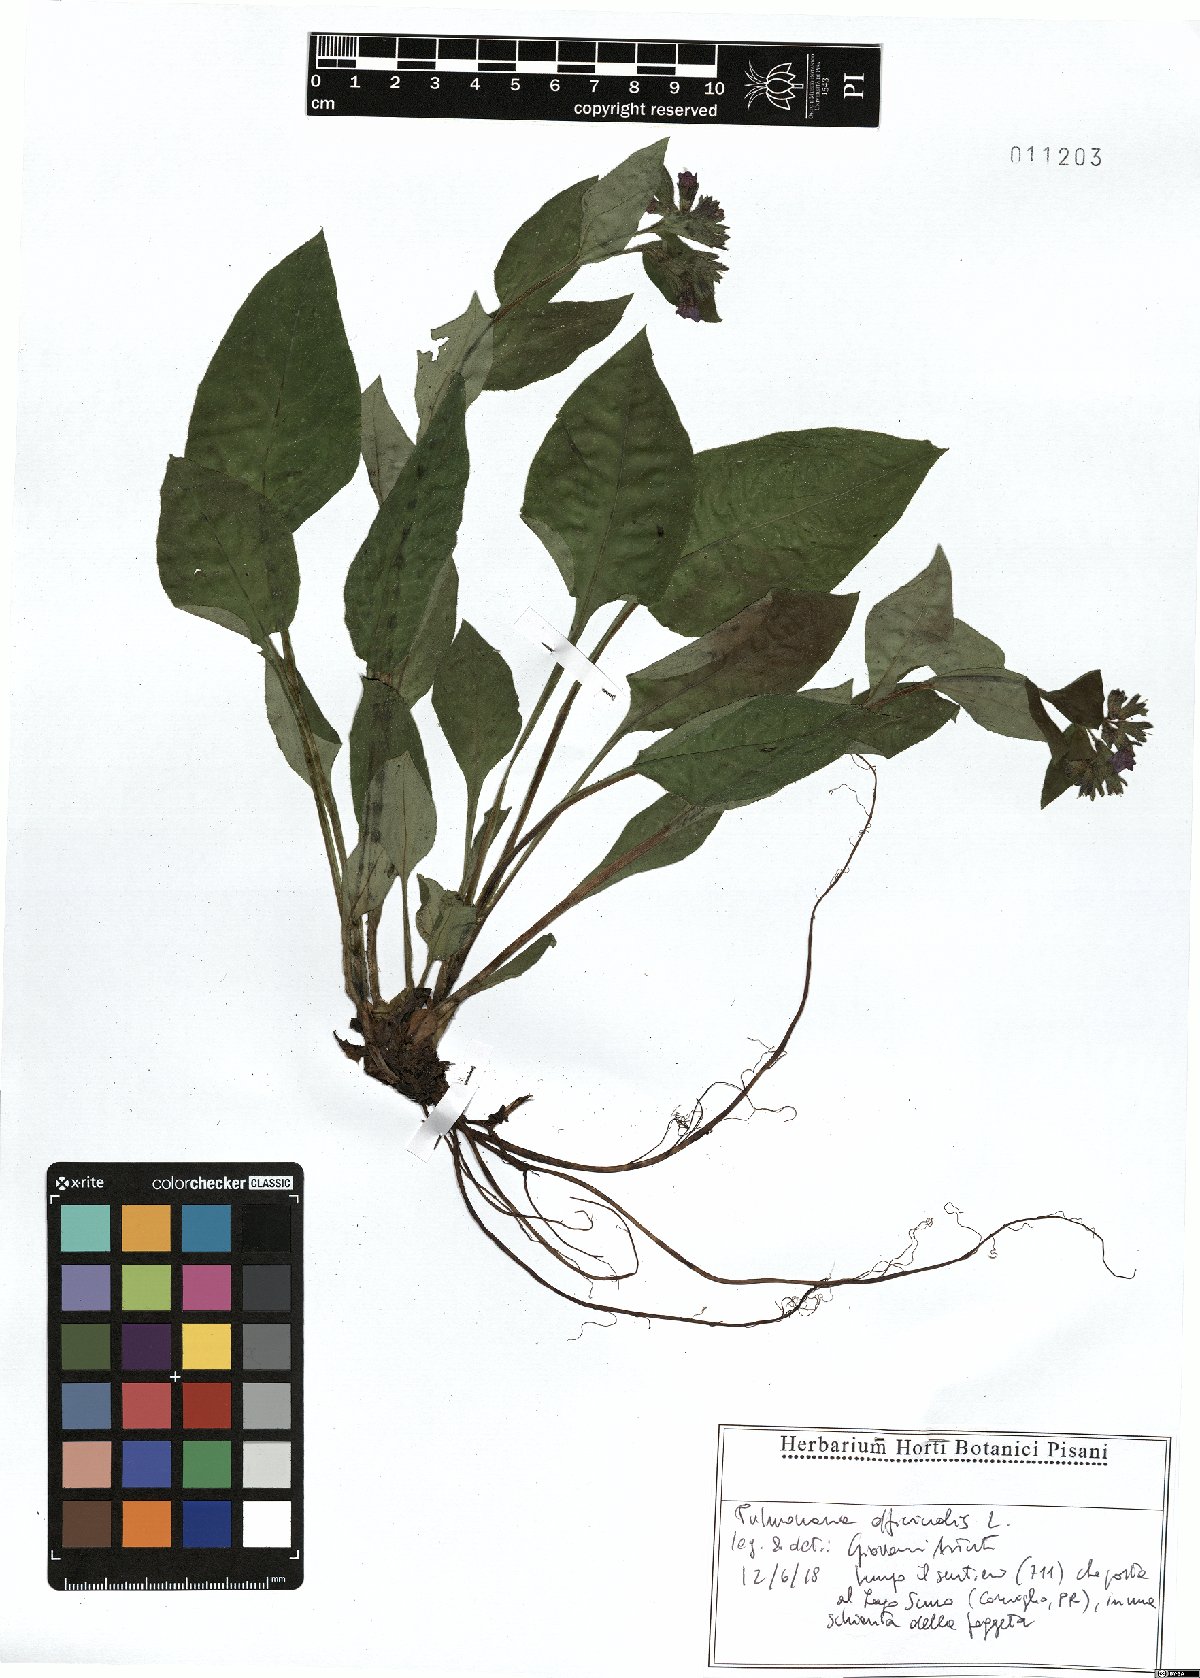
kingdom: Plantae
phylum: Tracheophyta
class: Magnoliopsida
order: Boraginales
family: Boraginaceae
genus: Pulmonaria
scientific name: Pulmonaria officinalis
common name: Lungwort
